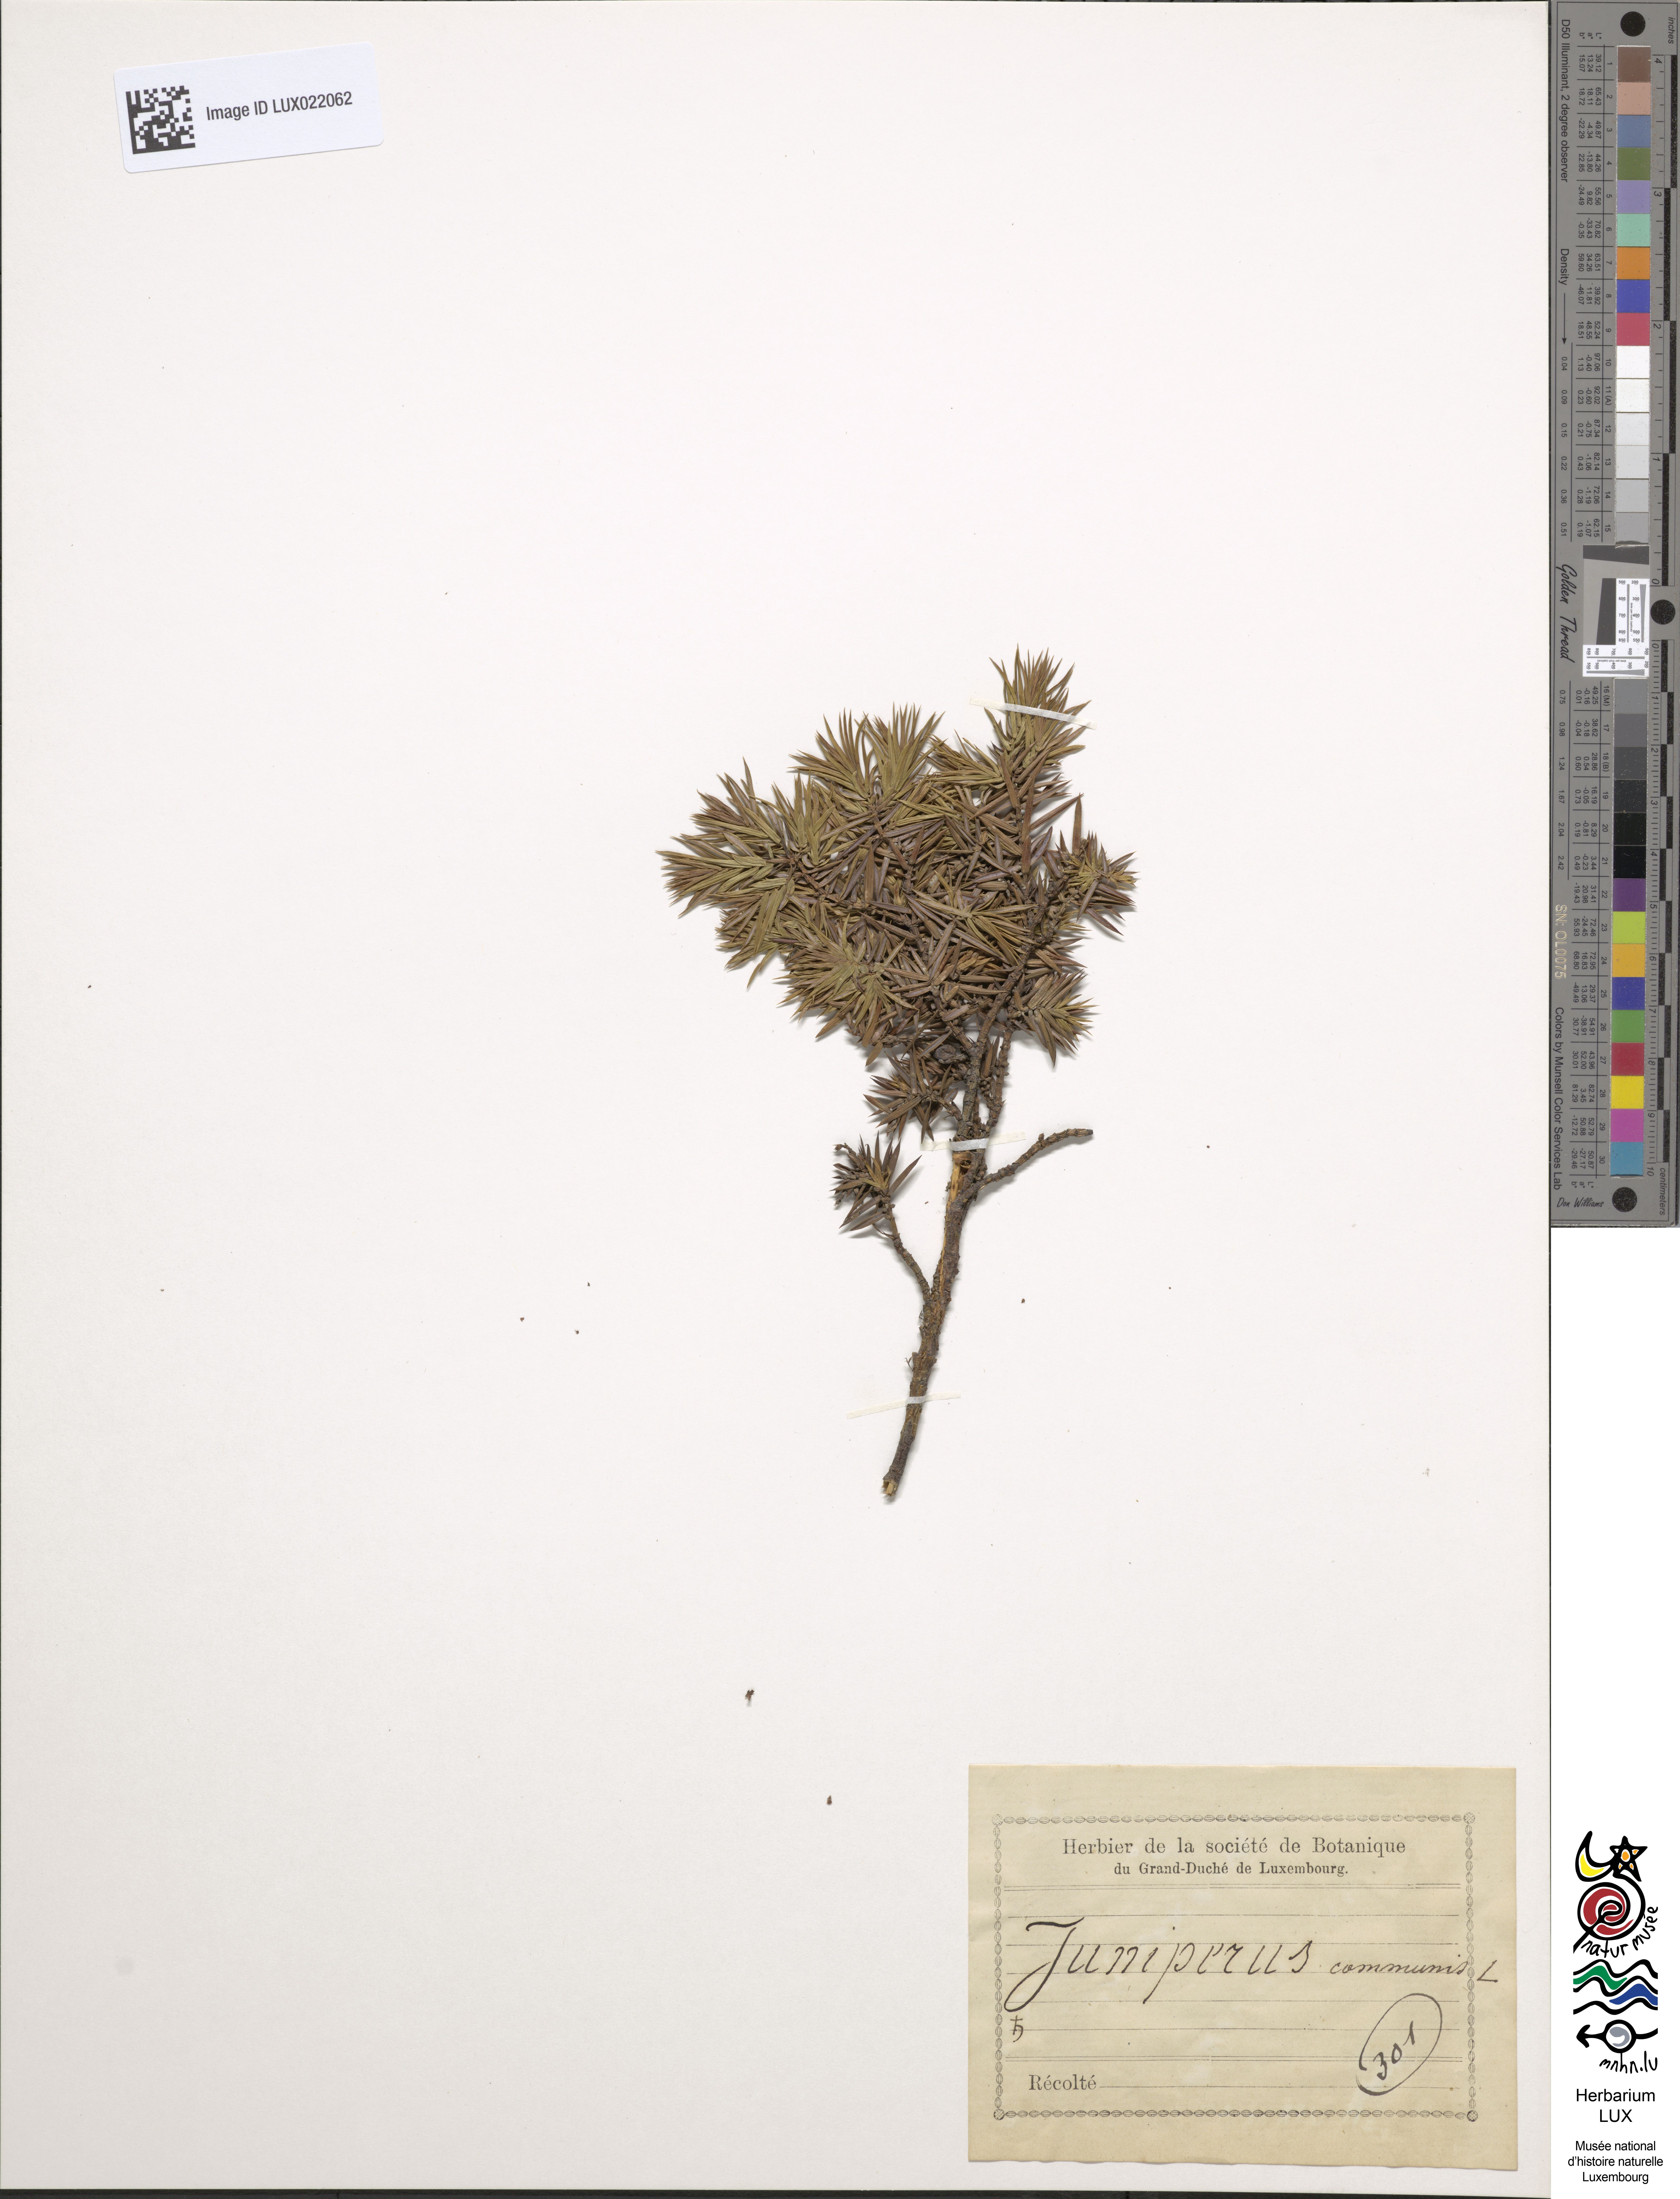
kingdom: Plantae
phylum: Tracheophyta
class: Pinopsida
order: Pinales
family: Cupressaceae
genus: Juniperus
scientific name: Juniperus communis
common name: Common juniper
